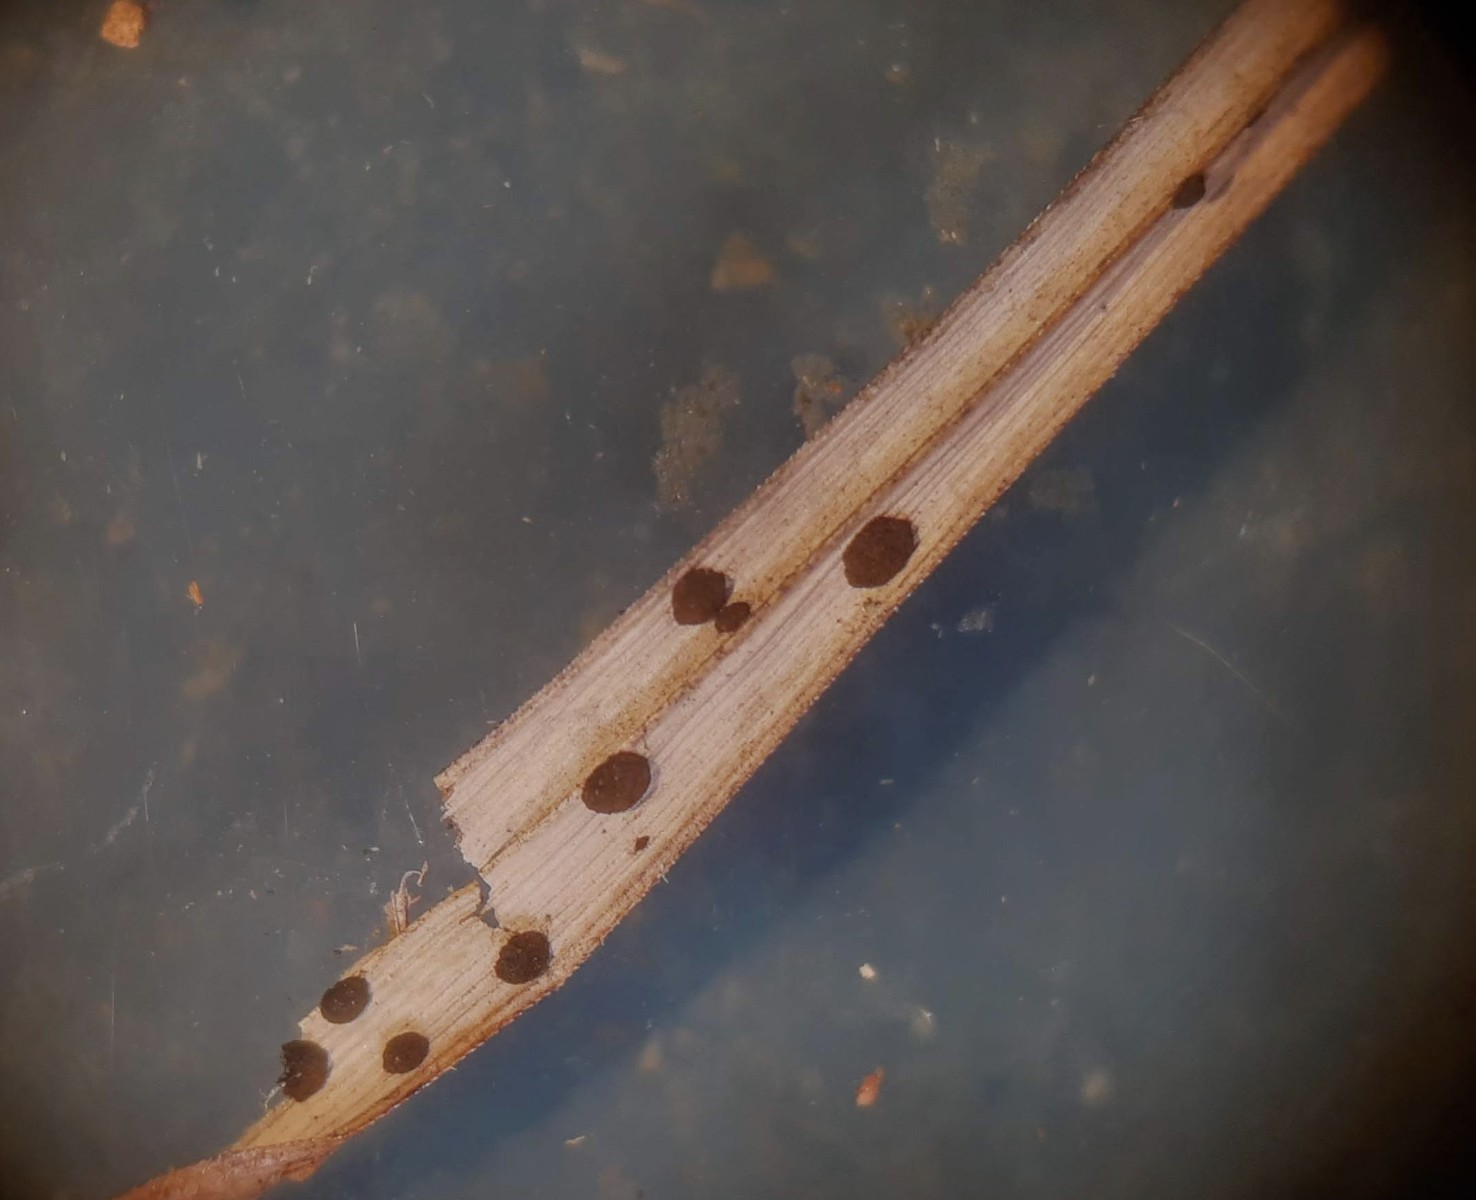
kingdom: Fungi
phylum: Ascomycota
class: Sordariomycetes
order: Xylariales
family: Apiosporaceae
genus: Arthrinium
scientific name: Arthrinium sporophleum
